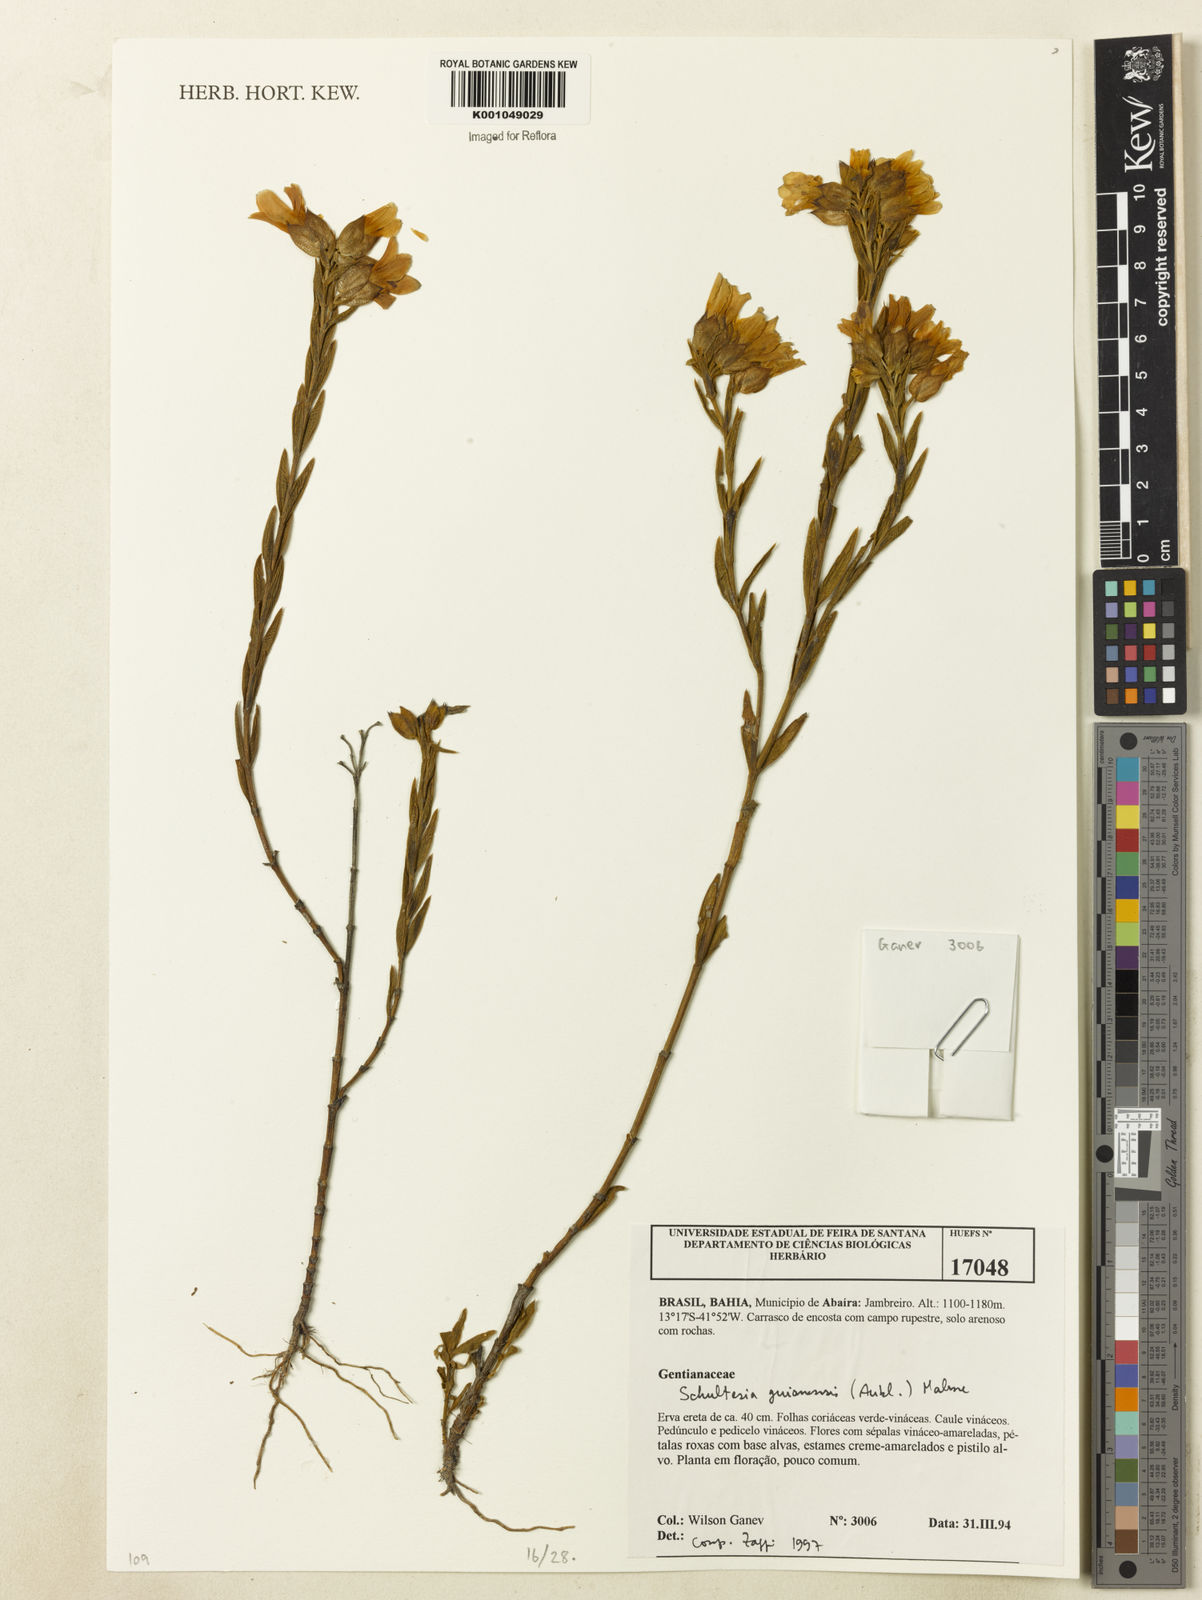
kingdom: Plantae
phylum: Tracheophyta
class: Magnoliopsida
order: Gentianales
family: Gentianaceae
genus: Schultesia
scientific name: Schultesia guianensis
